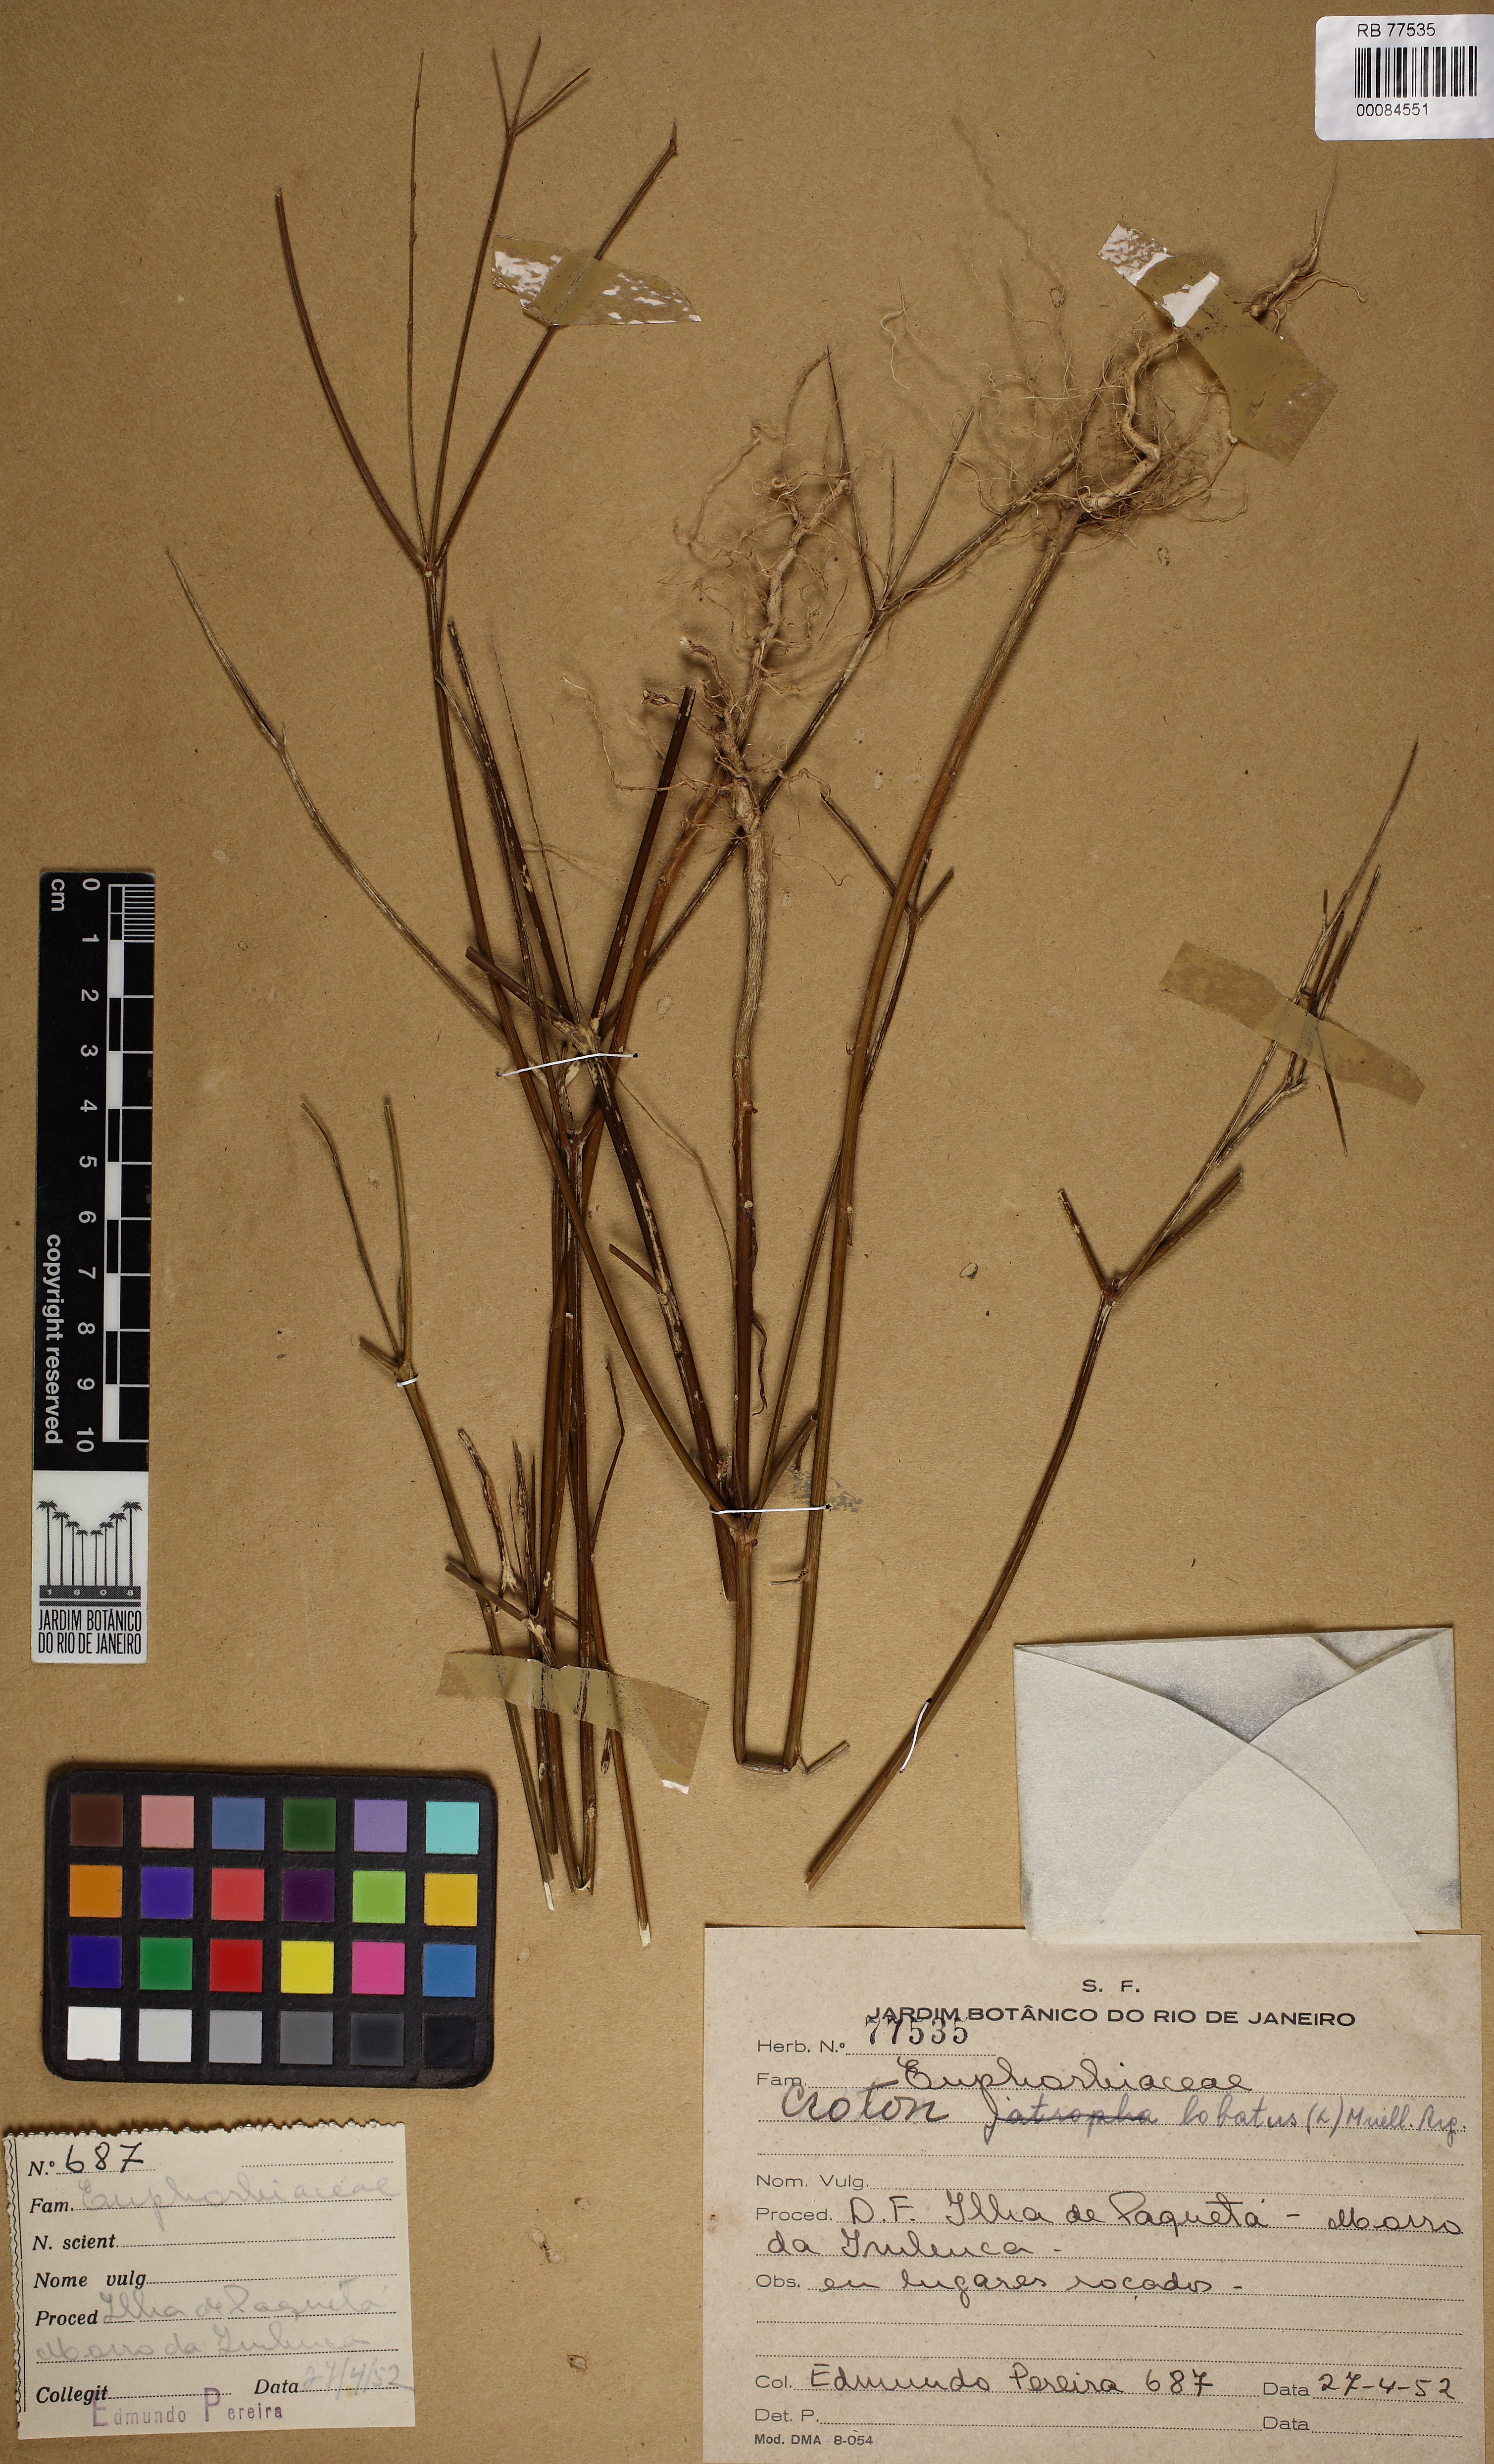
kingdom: Plantae
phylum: Tracheophyta
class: Magnoliopsida
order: Malpighiales
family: Euphorbiaceae
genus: Astraea
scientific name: Astraea gracilis
